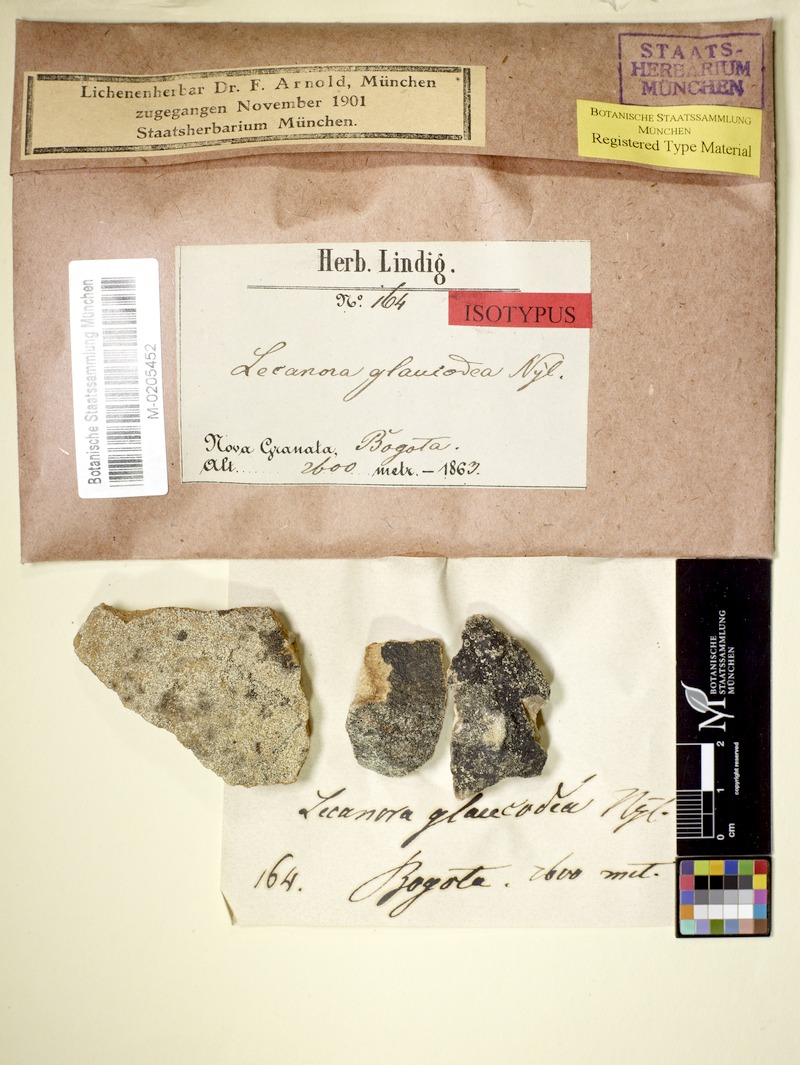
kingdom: Fungi
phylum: Ascomycota
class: Lecanoromycetes
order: Lecanorales
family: Lecanoraceae
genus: Lecanora
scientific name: Lecanora glaucodea
